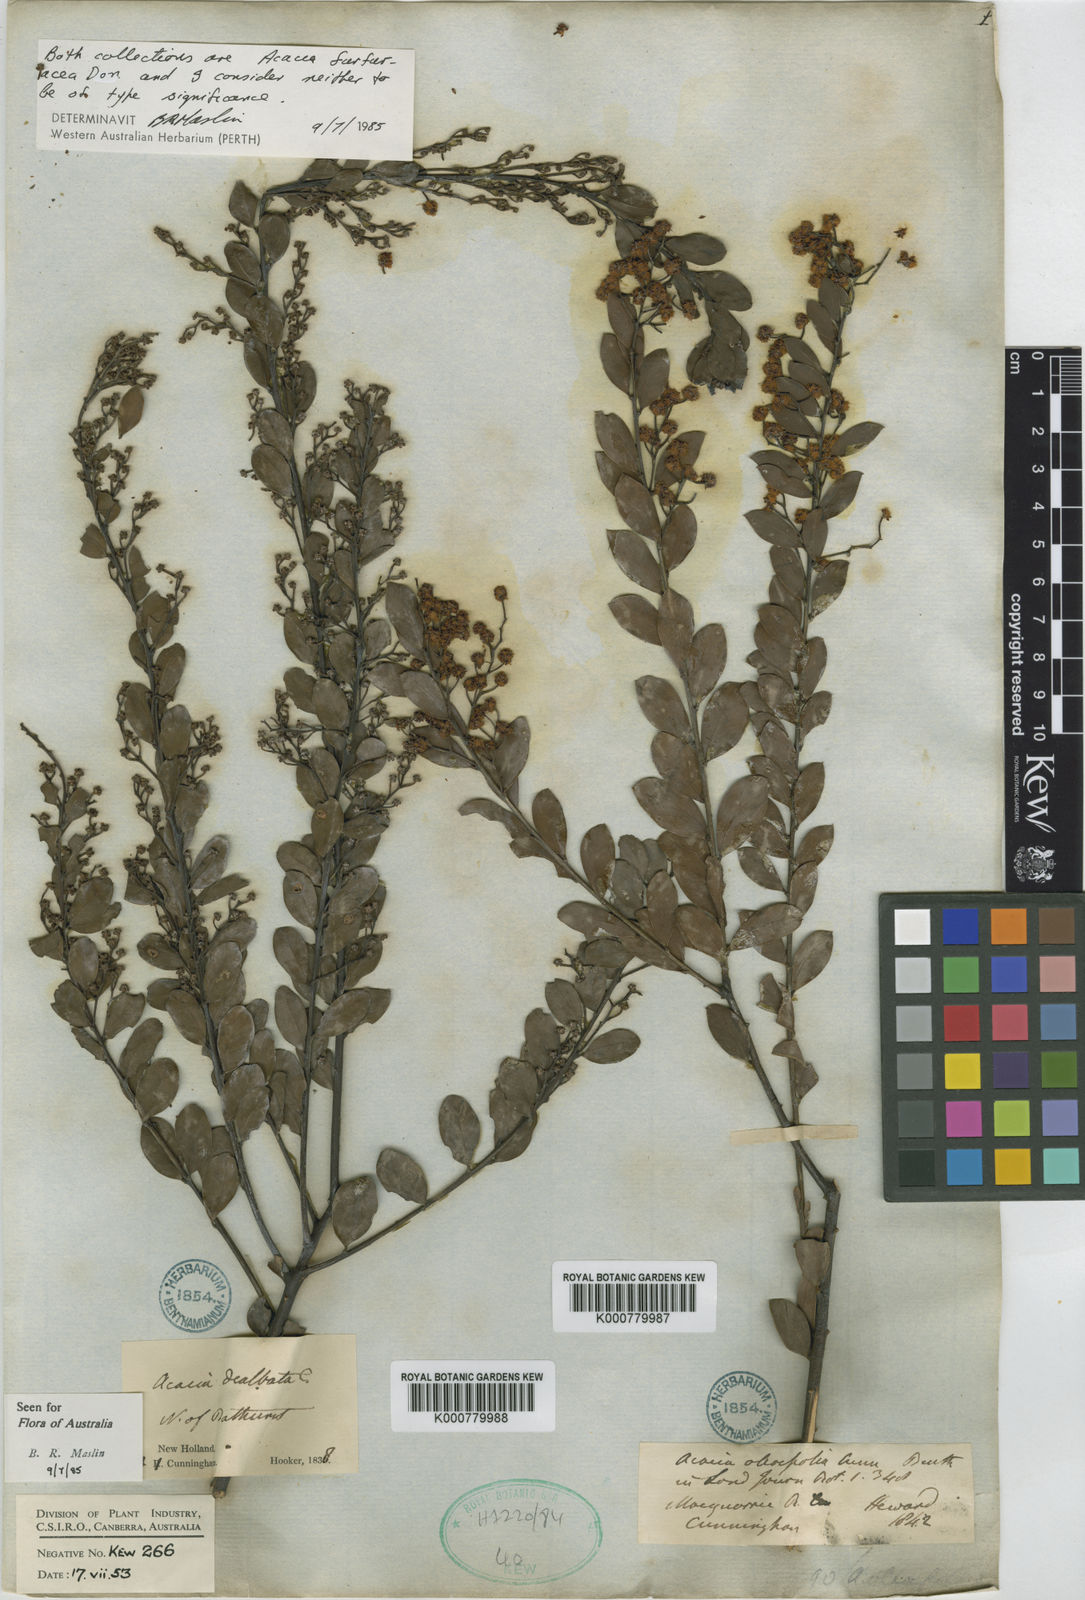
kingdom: Plantae
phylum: Tracheophyta
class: Magnoliopsida
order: Fabales
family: Fabaceae
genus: Acacia
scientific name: Acacia lunata
